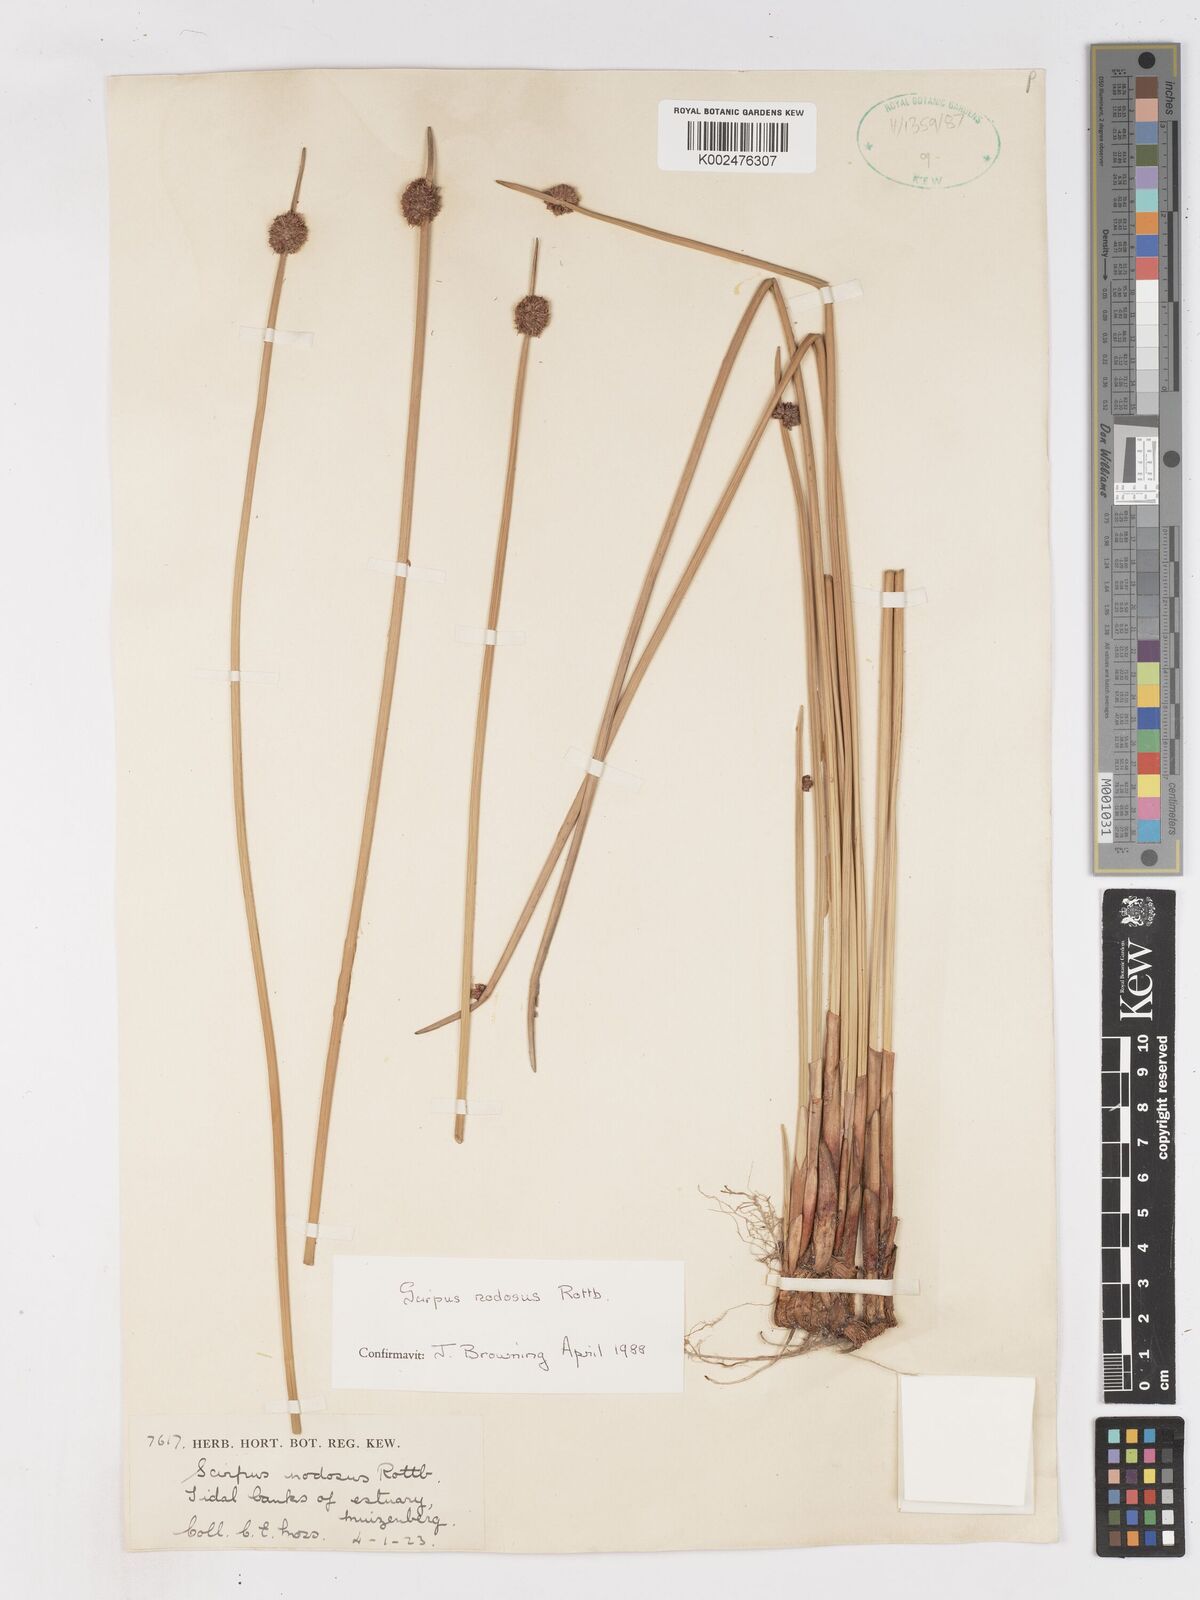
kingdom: Plantae
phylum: Tracheophyta
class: Liliopsida
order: Poales
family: Cyperaceae
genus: Ficinia
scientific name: Ficinia nodosa
